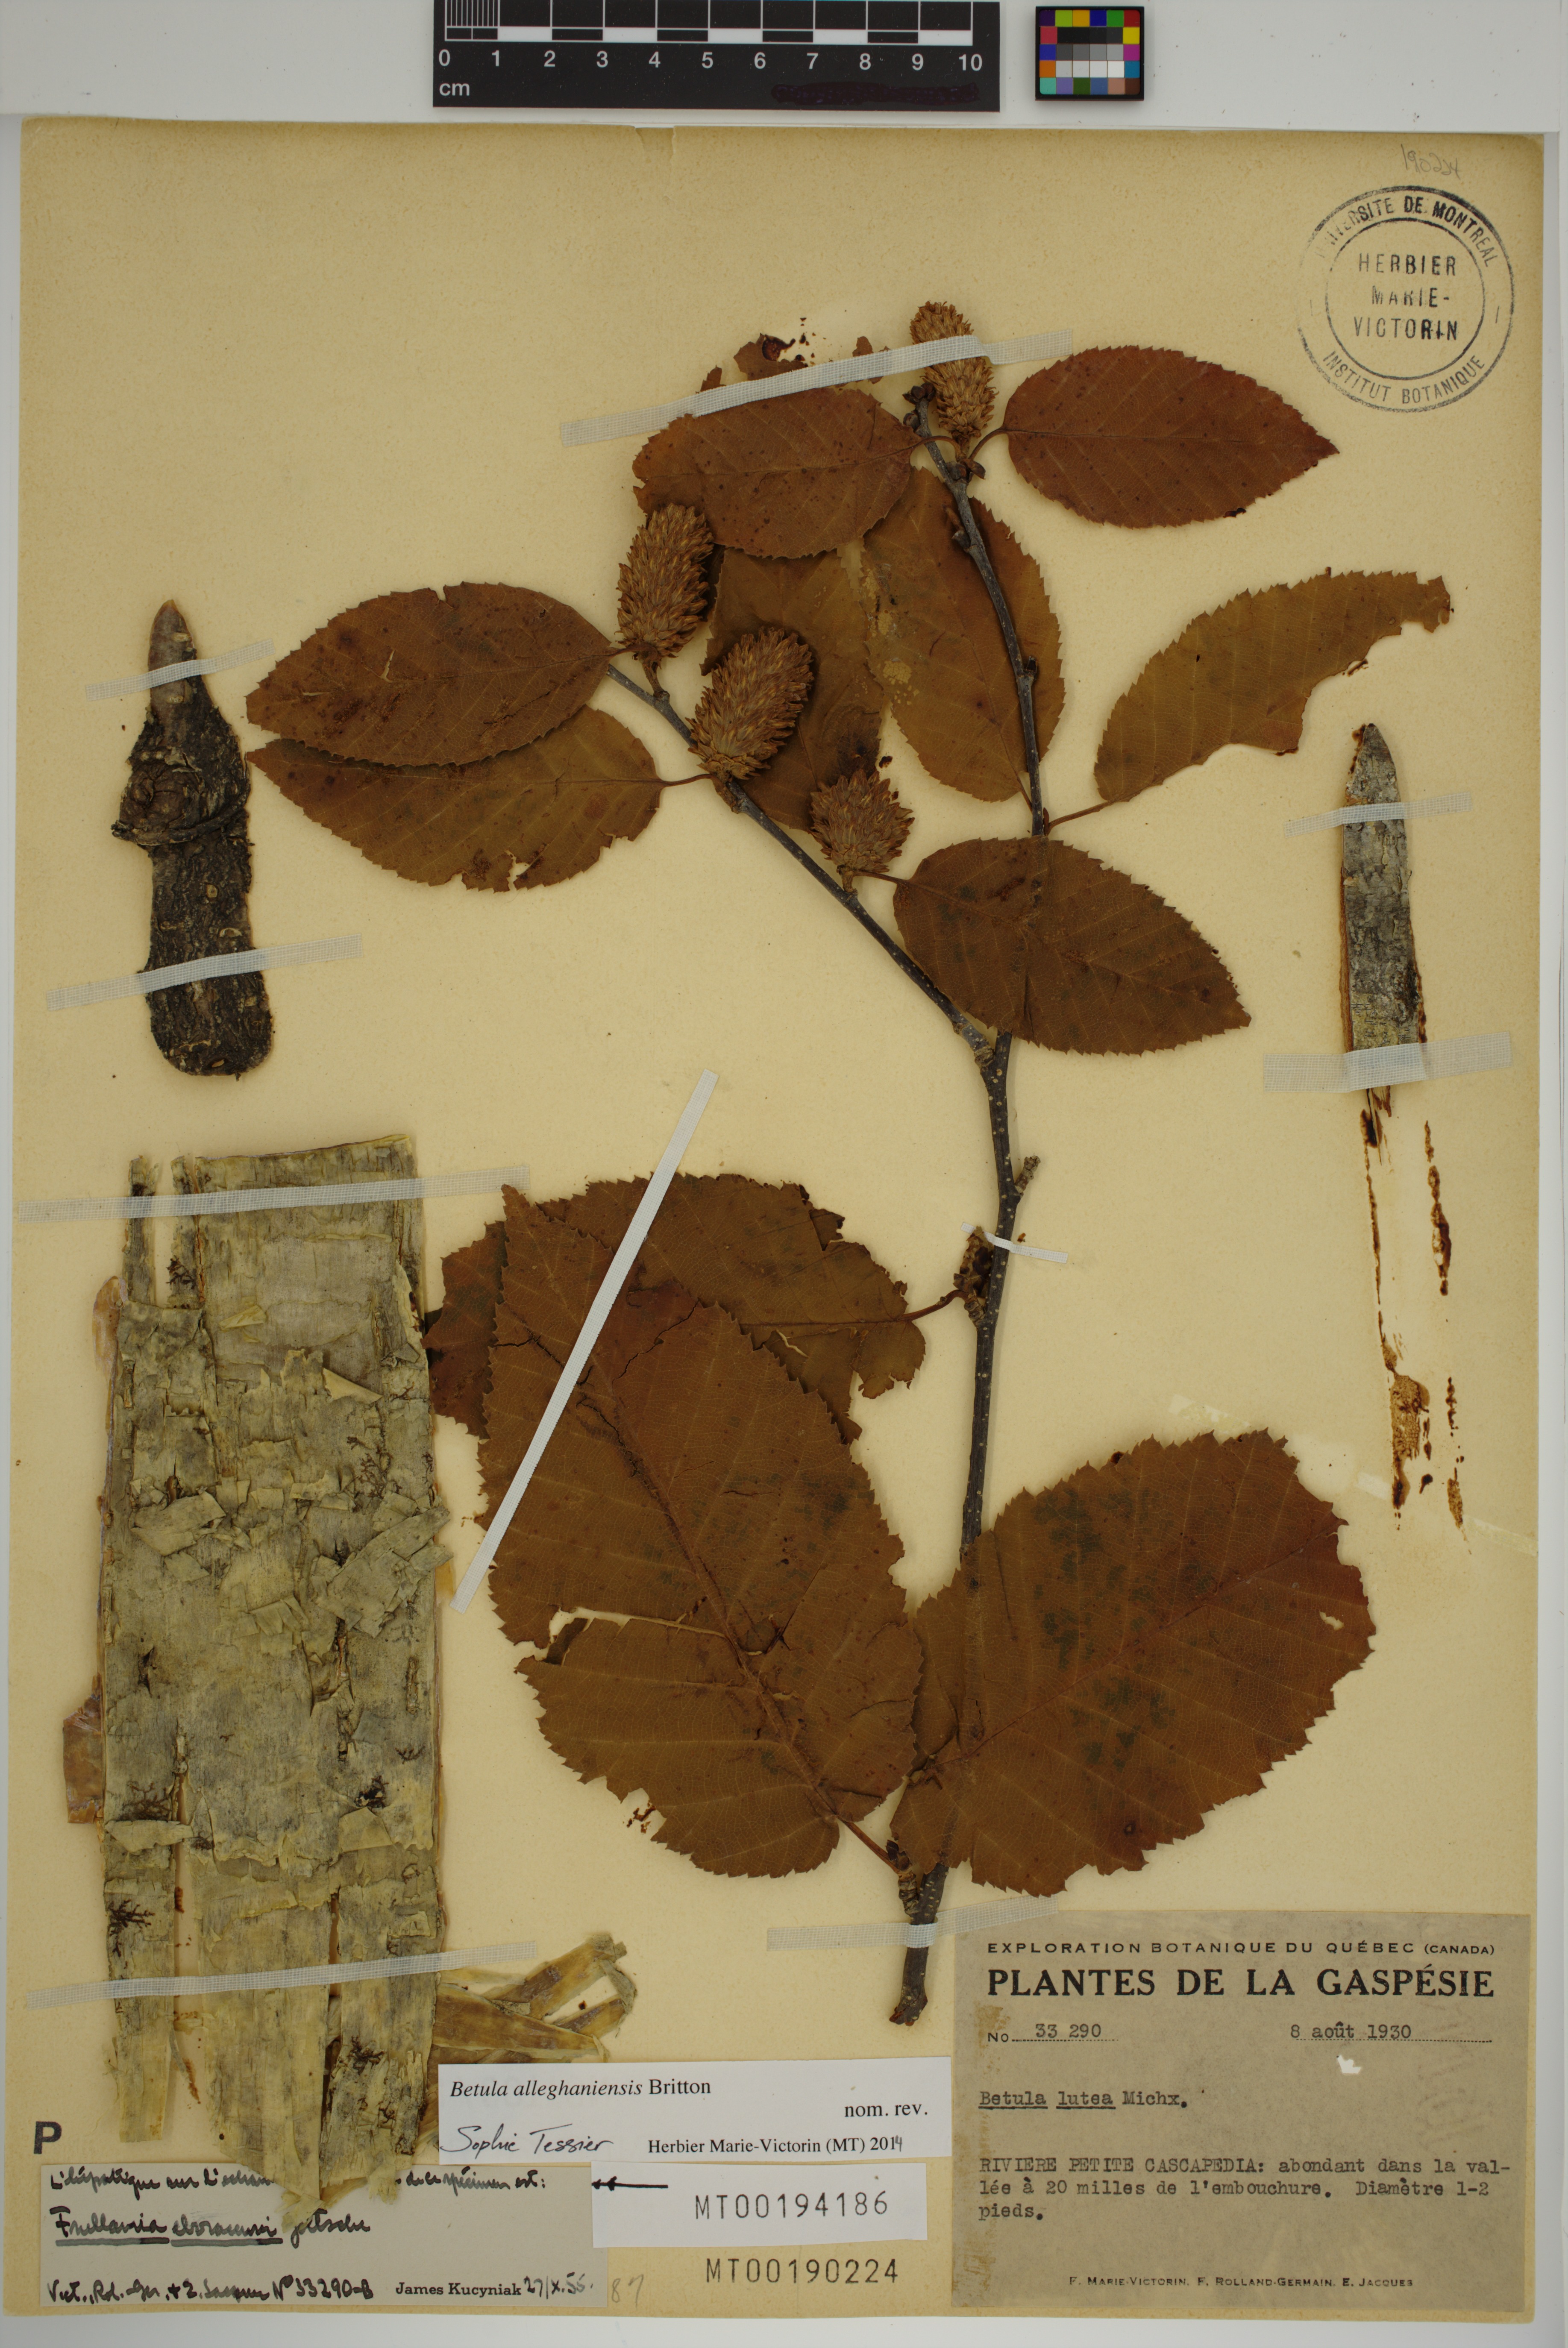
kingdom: Plantae
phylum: Marchantiophyta
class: Jungermanniopsida
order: Porellales
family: Frullaniaceae
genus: Frullania
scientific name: Frullania eboracensis
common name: New york scalewort
